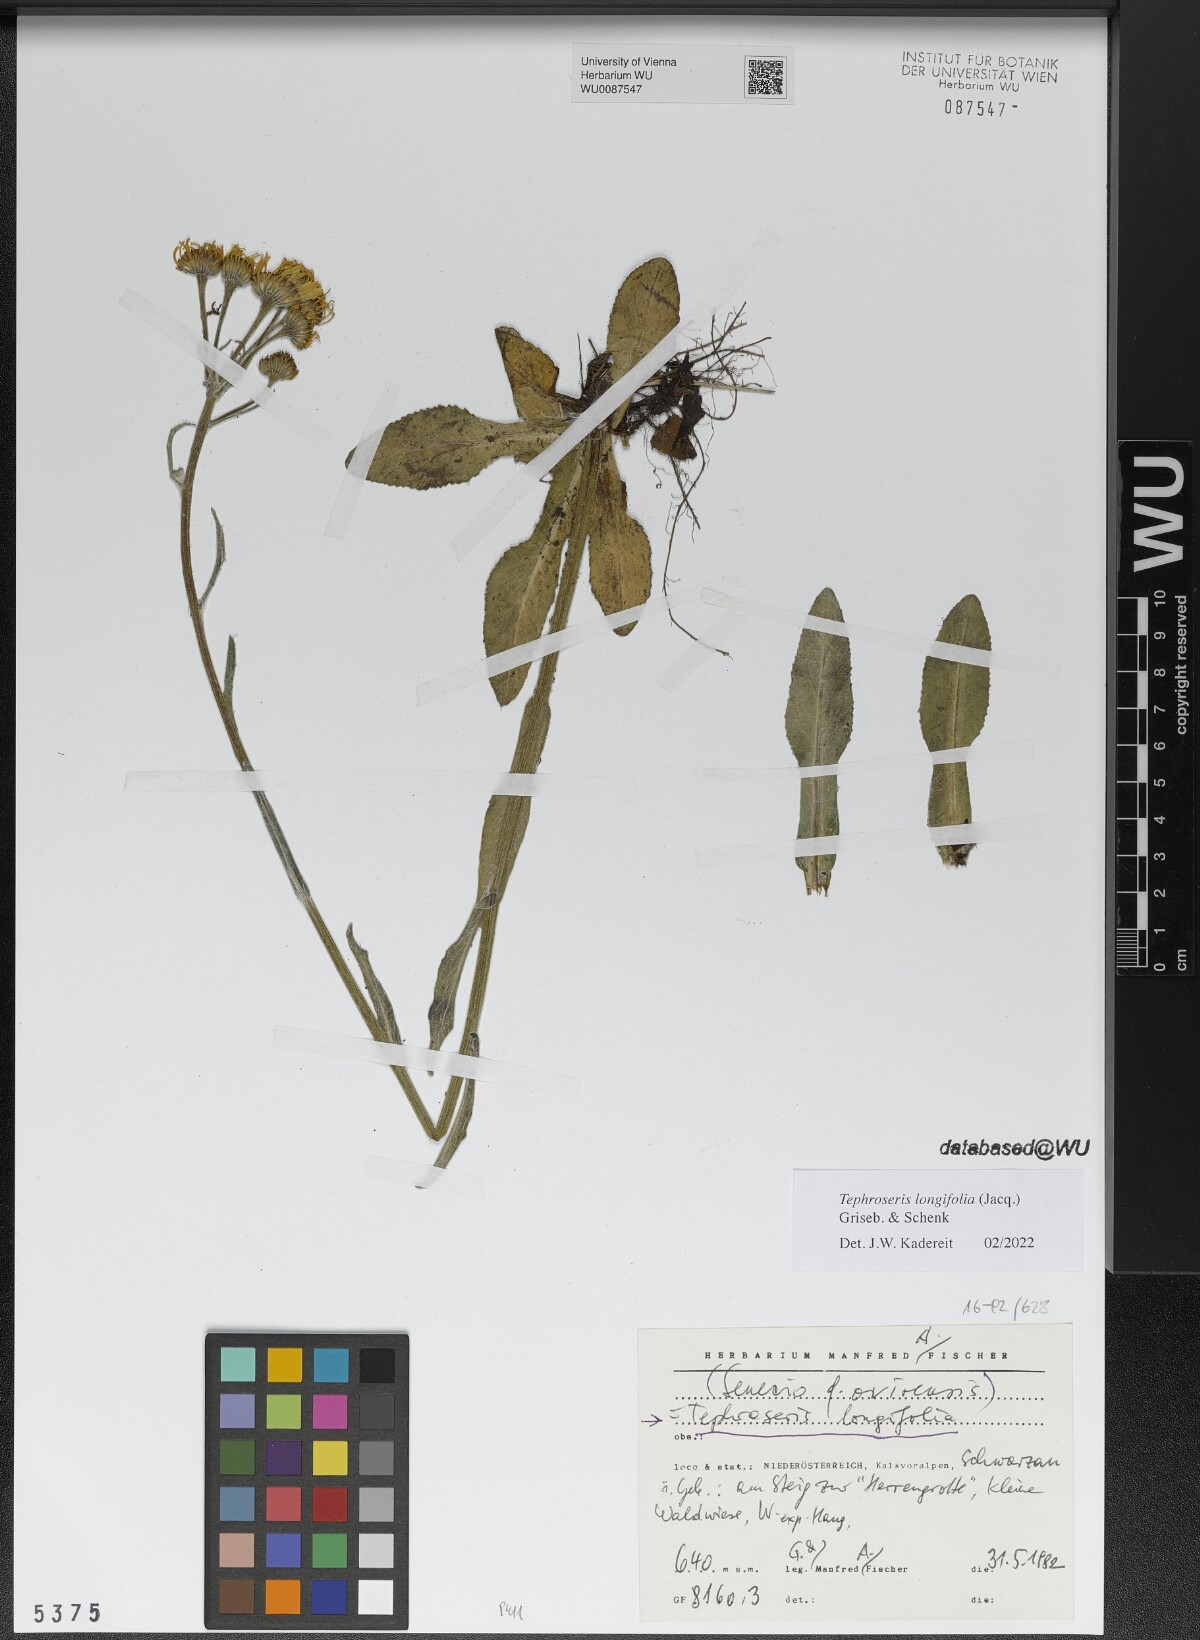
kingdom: Plantae
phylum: Tracheophyta
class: Magnoliopsida
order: Asterales
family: Asteraceae
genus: Tephroseris
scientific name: Tephroseris longifolia
